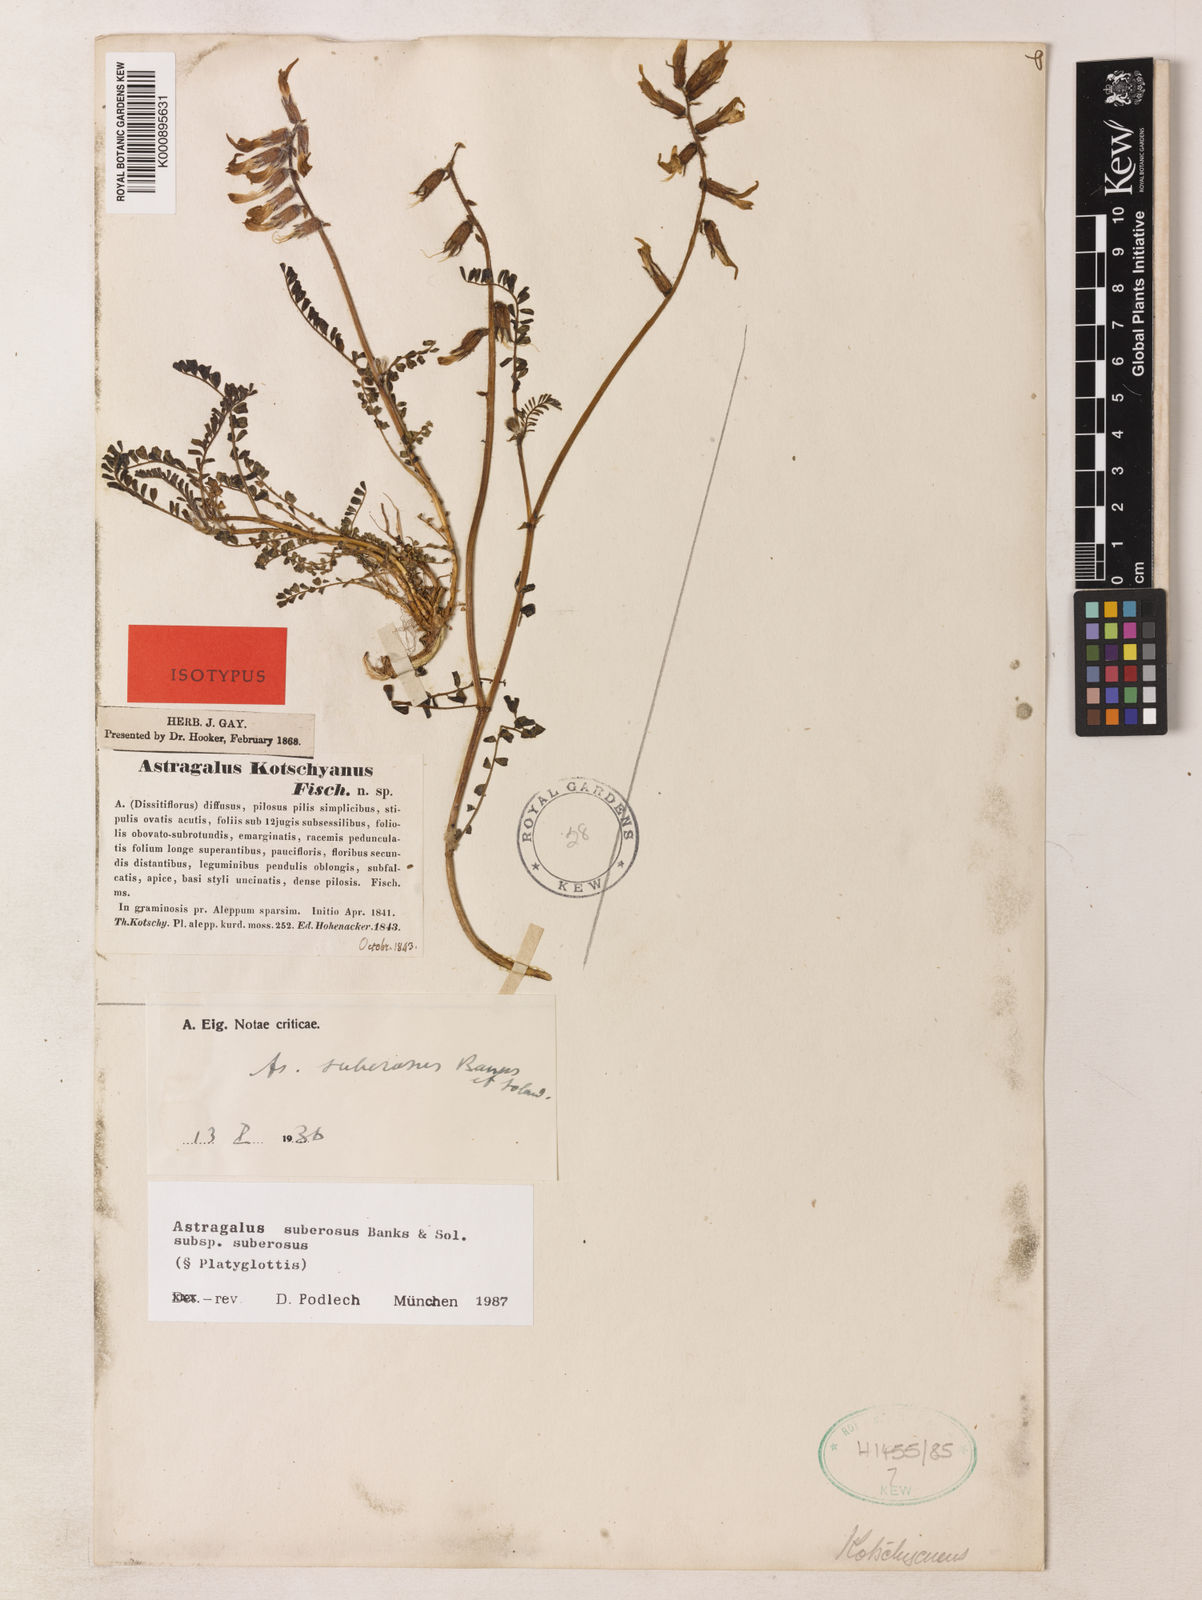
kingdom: Plantae
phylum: Tracheophyta
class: Magnoliopsida
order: Fabales
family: Fabaceae
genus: Astragalus
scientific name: Astragalus suberosus
